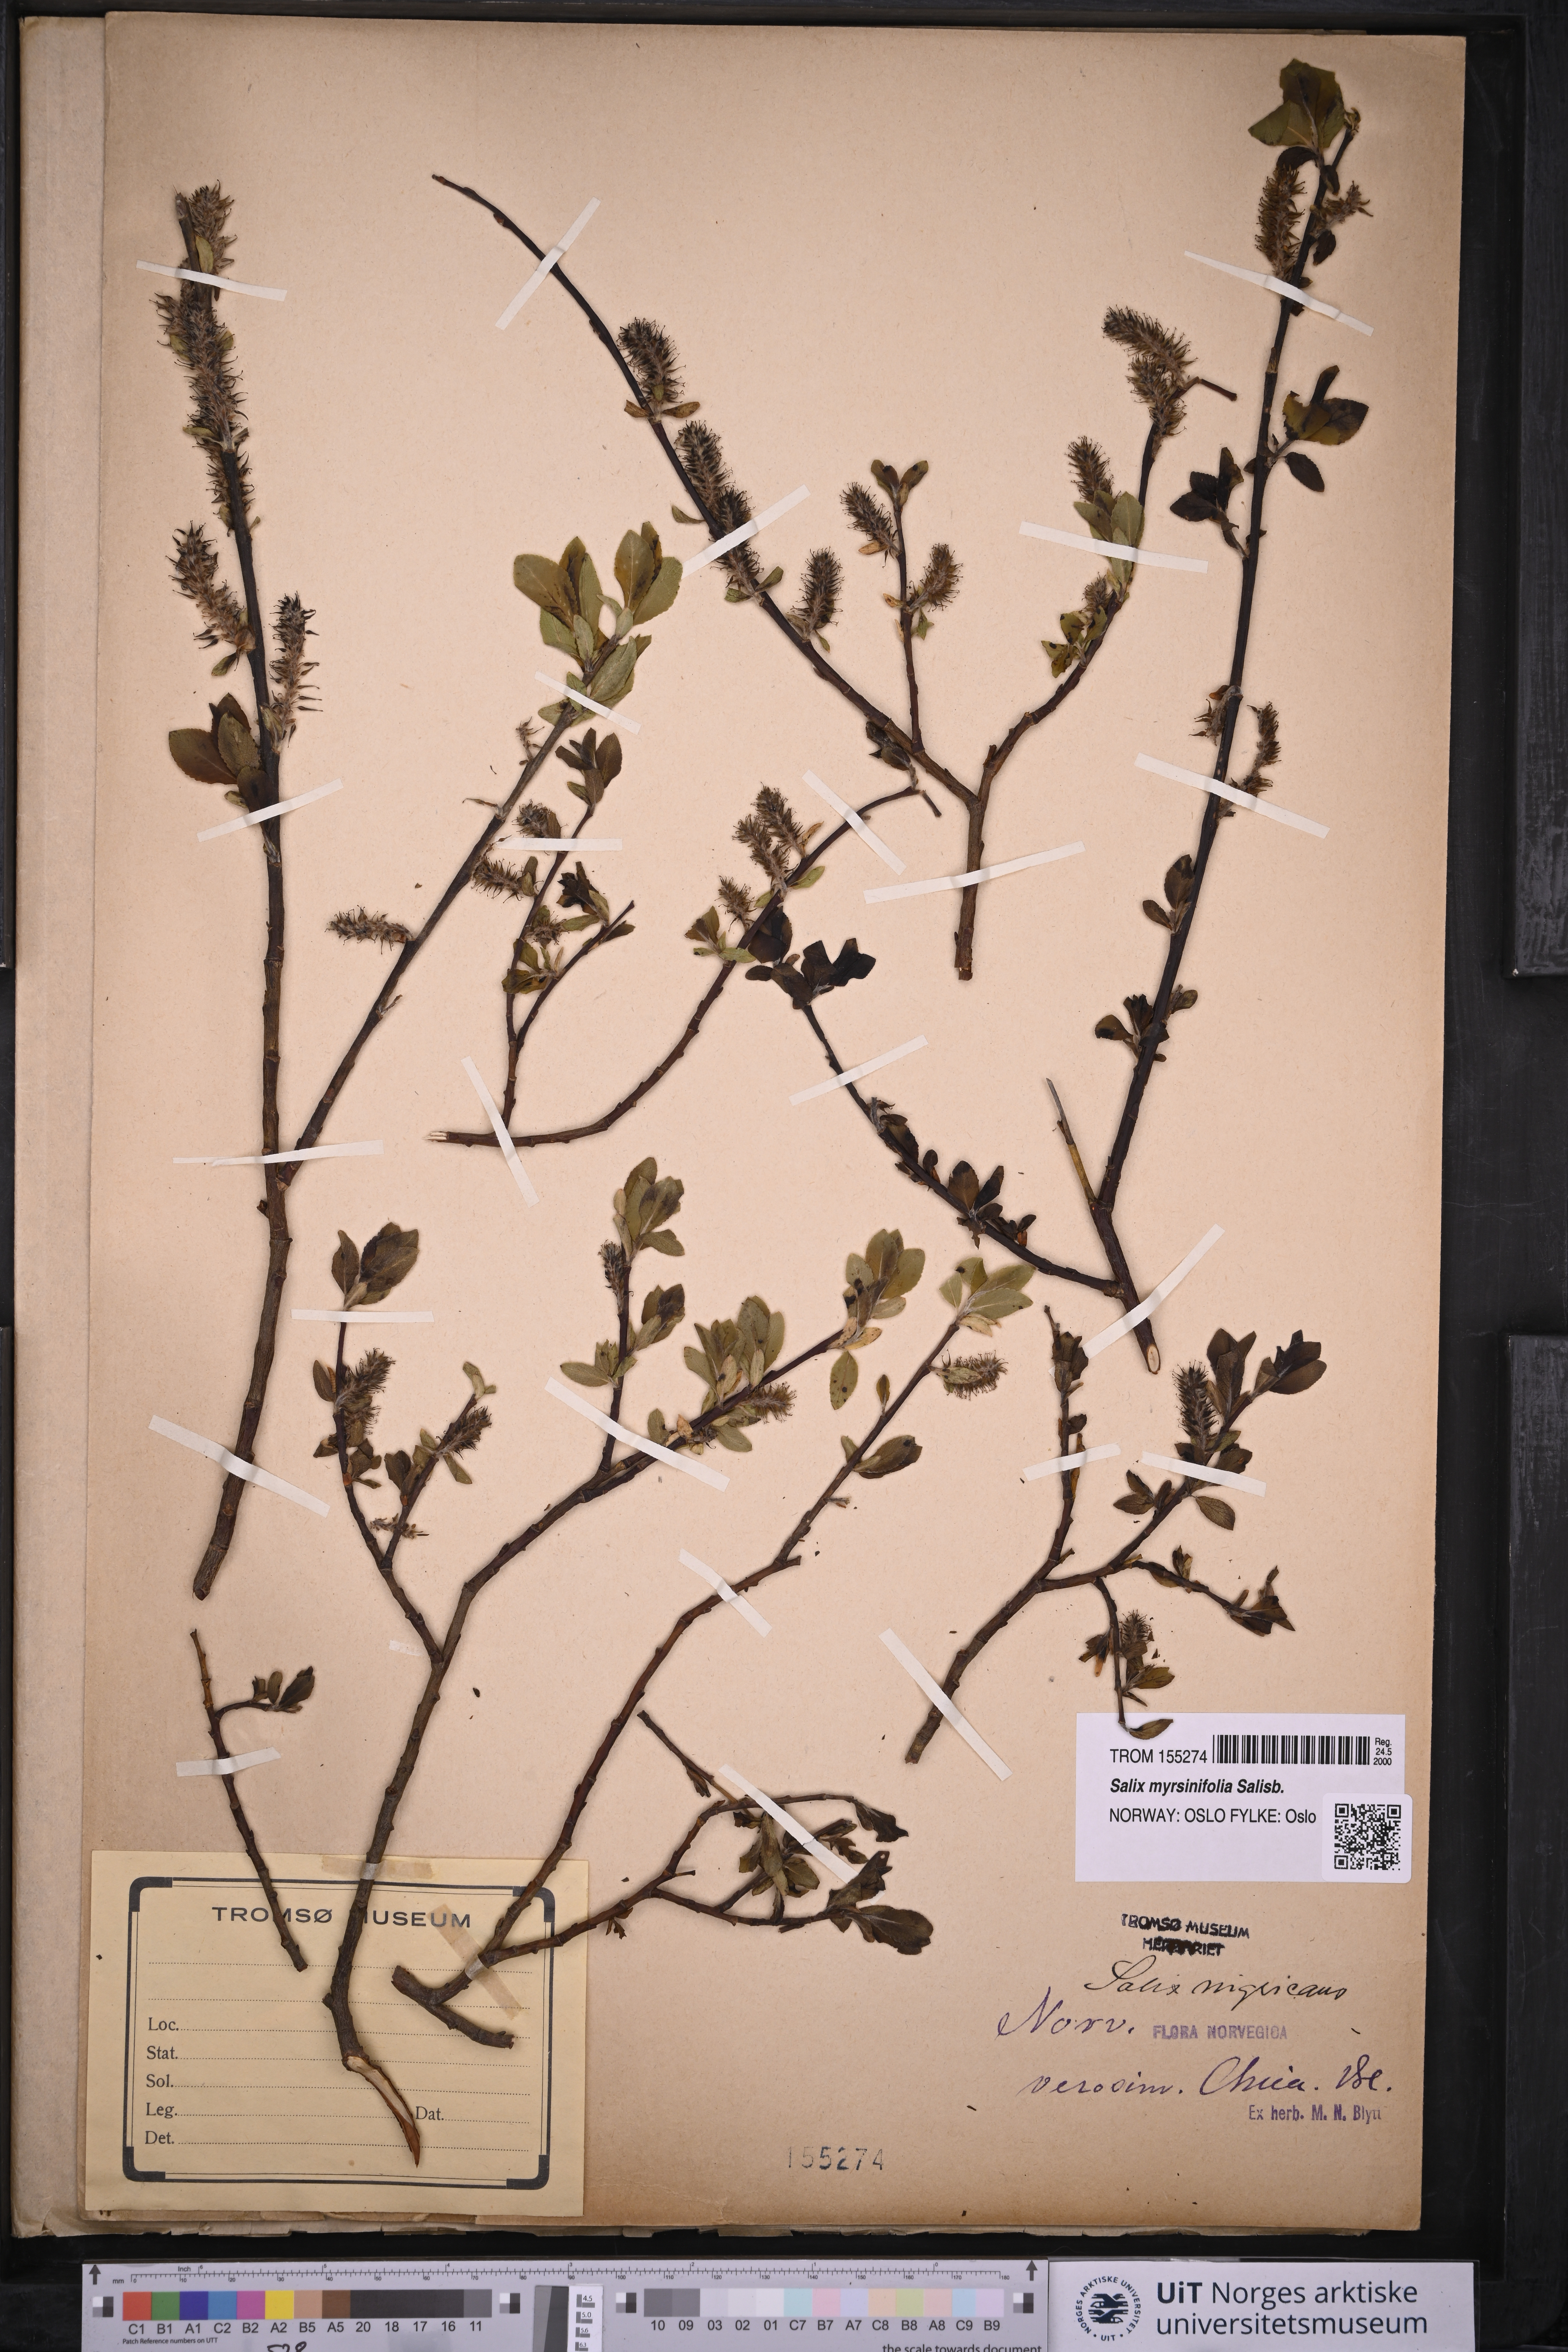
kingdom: Plantae
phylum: Tracheophyta
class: Magnoliopsida
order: Malpighiales
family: Salicaceae
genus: Salix
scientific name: Salix myrsinifolia
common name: Dark-leaved willow
